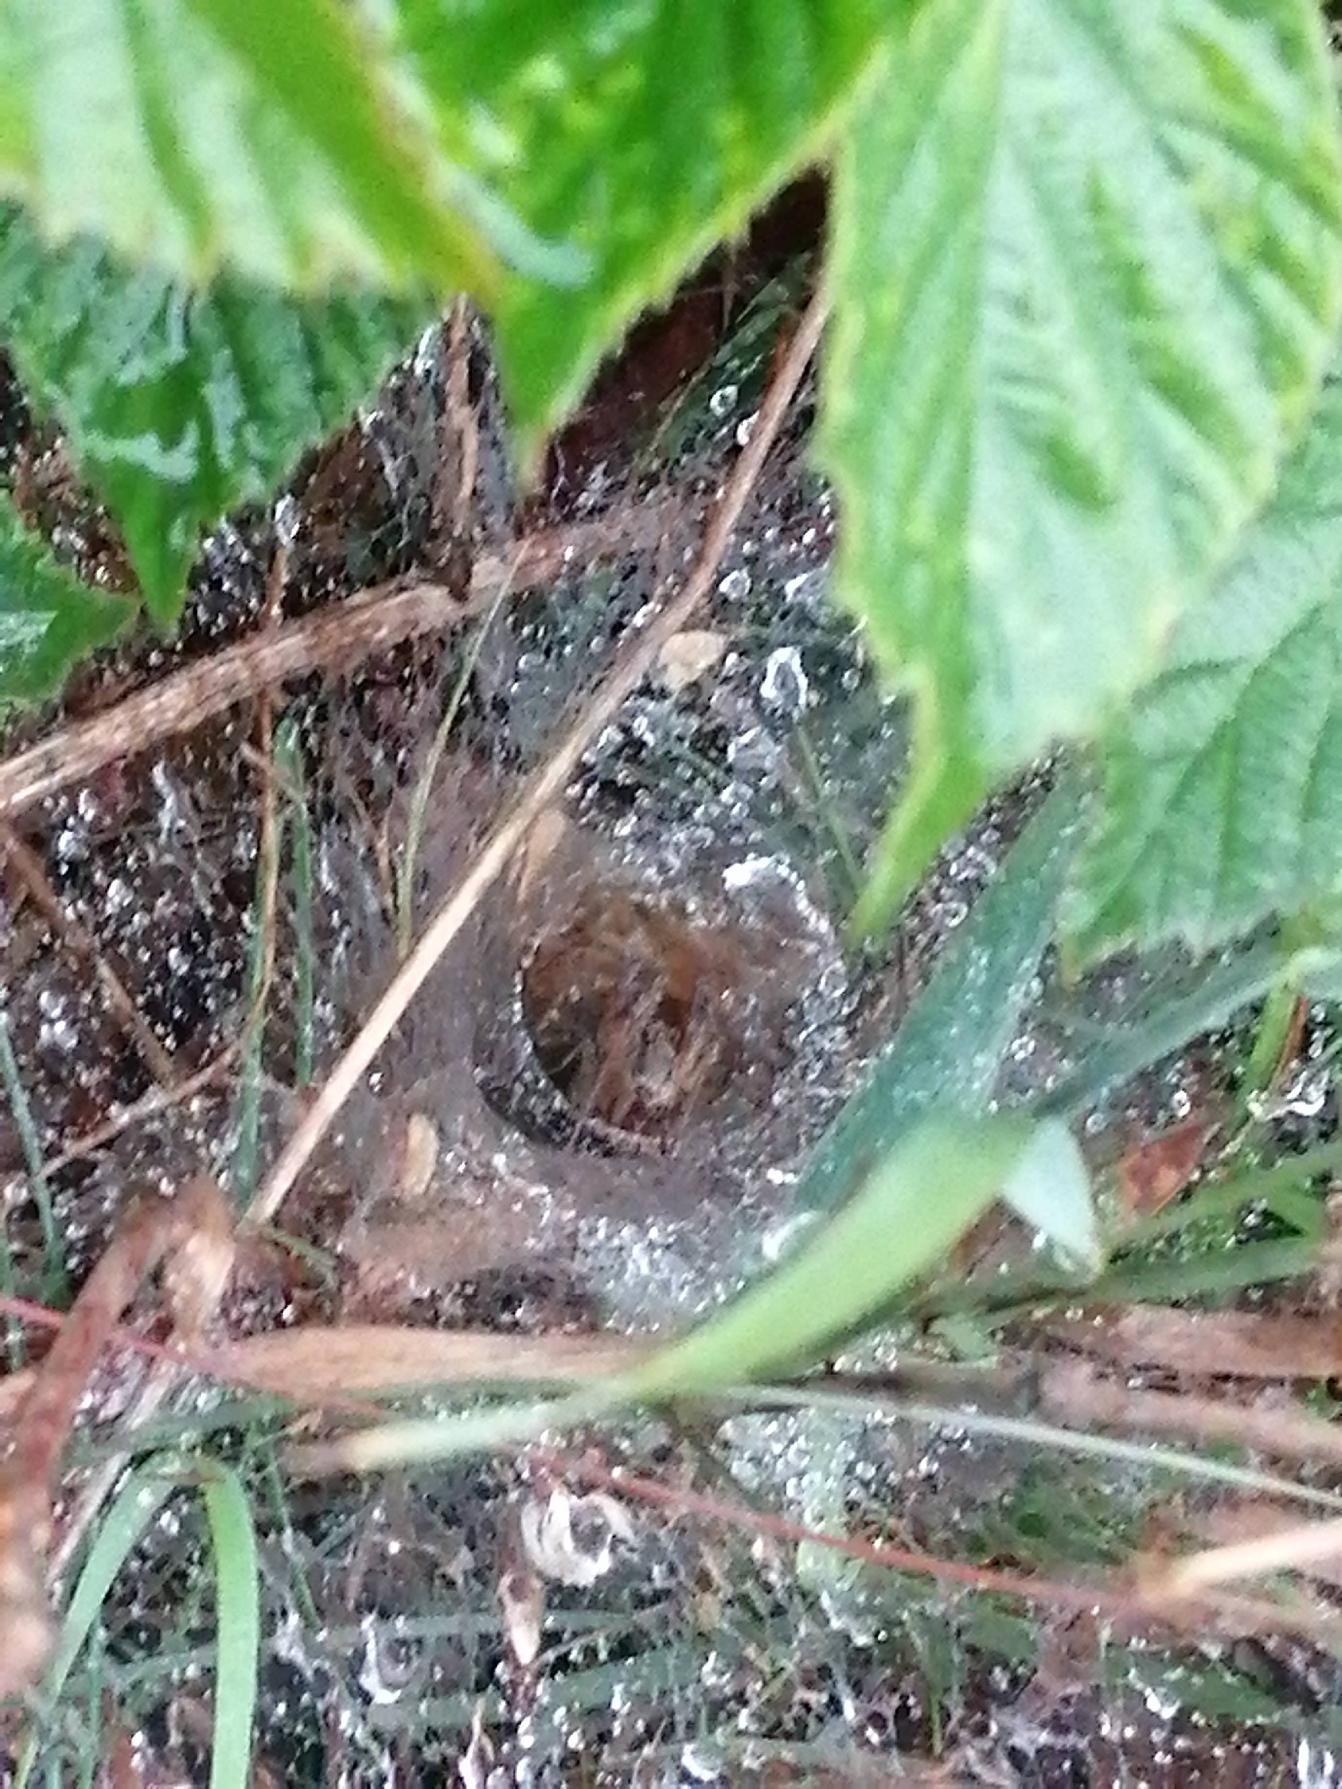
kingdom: Animalia
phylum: Arthropoda
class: Arachnida
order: Araneae
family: Agelenidae
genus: Agelena
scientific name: Agelena labyrinthica
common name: Labyrintedderkop
